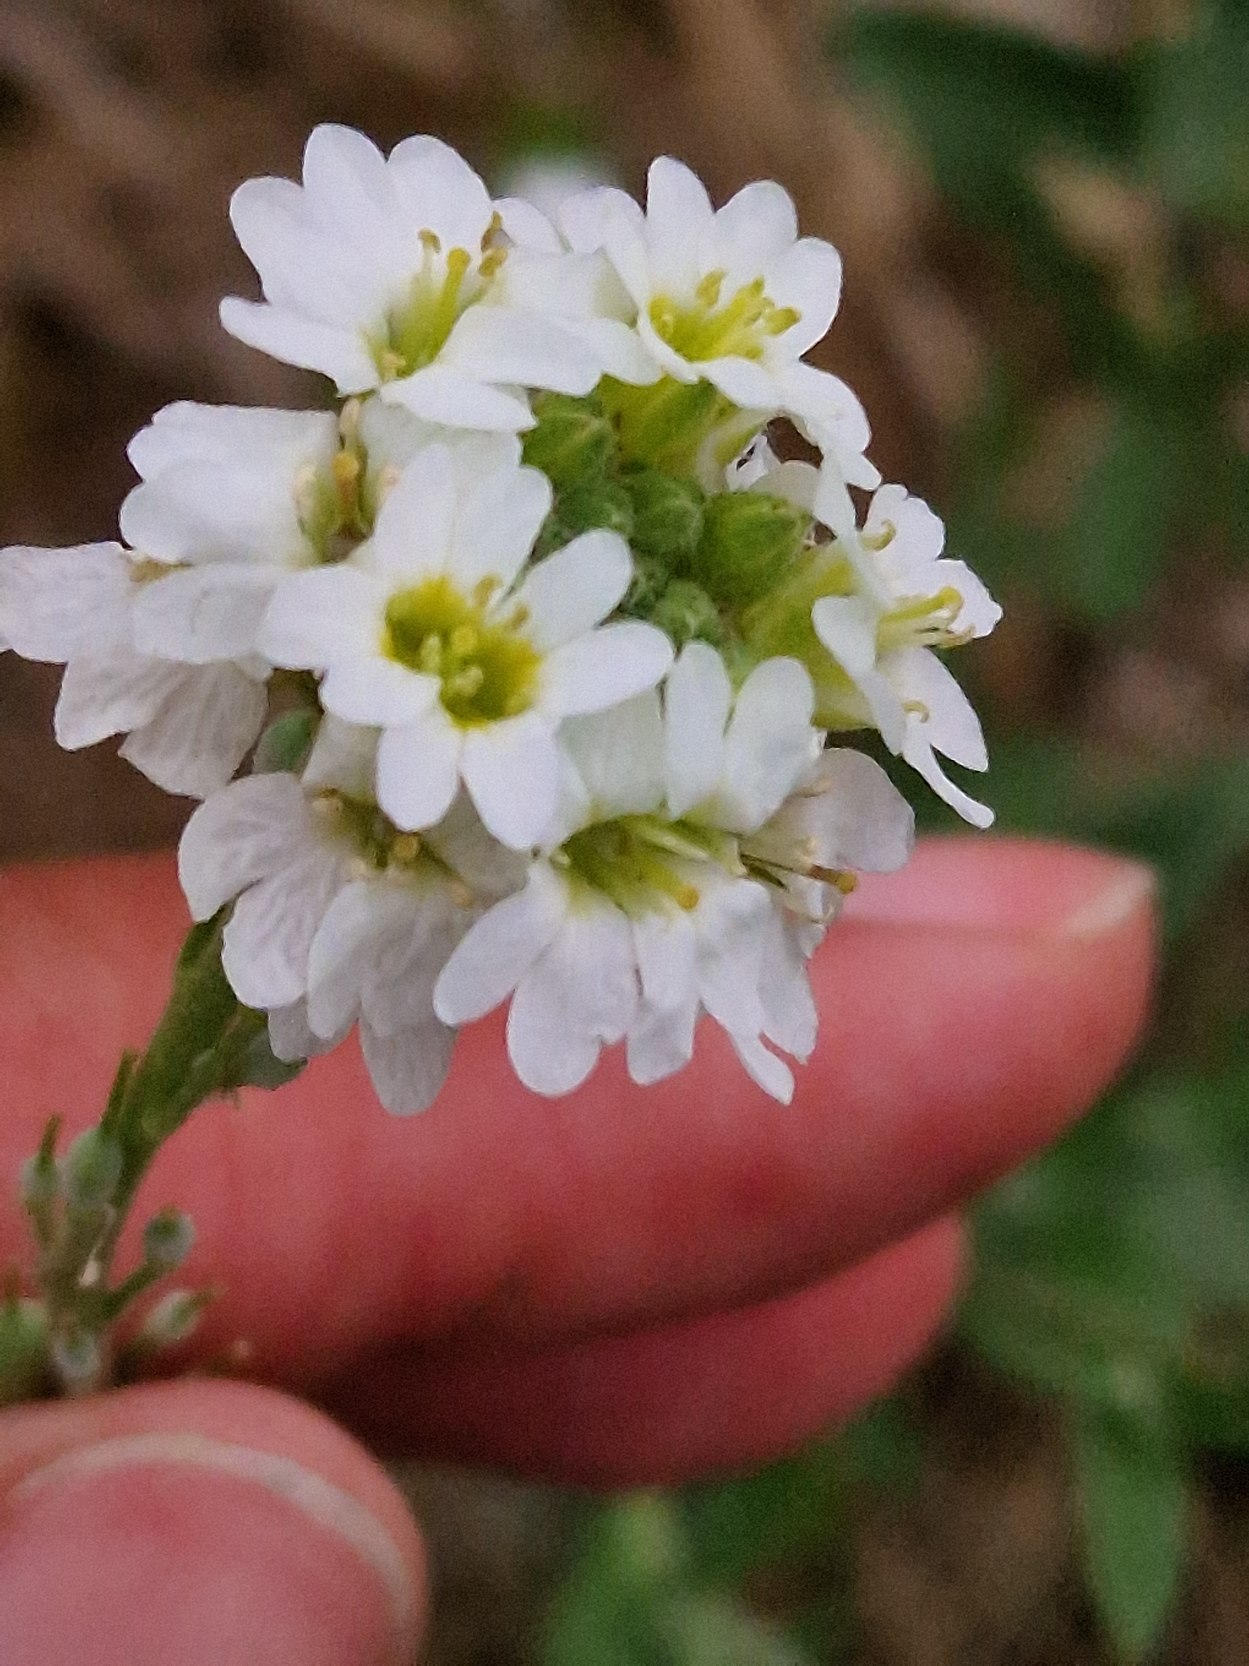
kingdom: Plantae
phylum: Tracheophyta
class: Magnoliopsida
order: Brassicales
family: Brassicaceae
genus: Berteroa
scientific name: Berteroa incana
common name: Kløvplade
